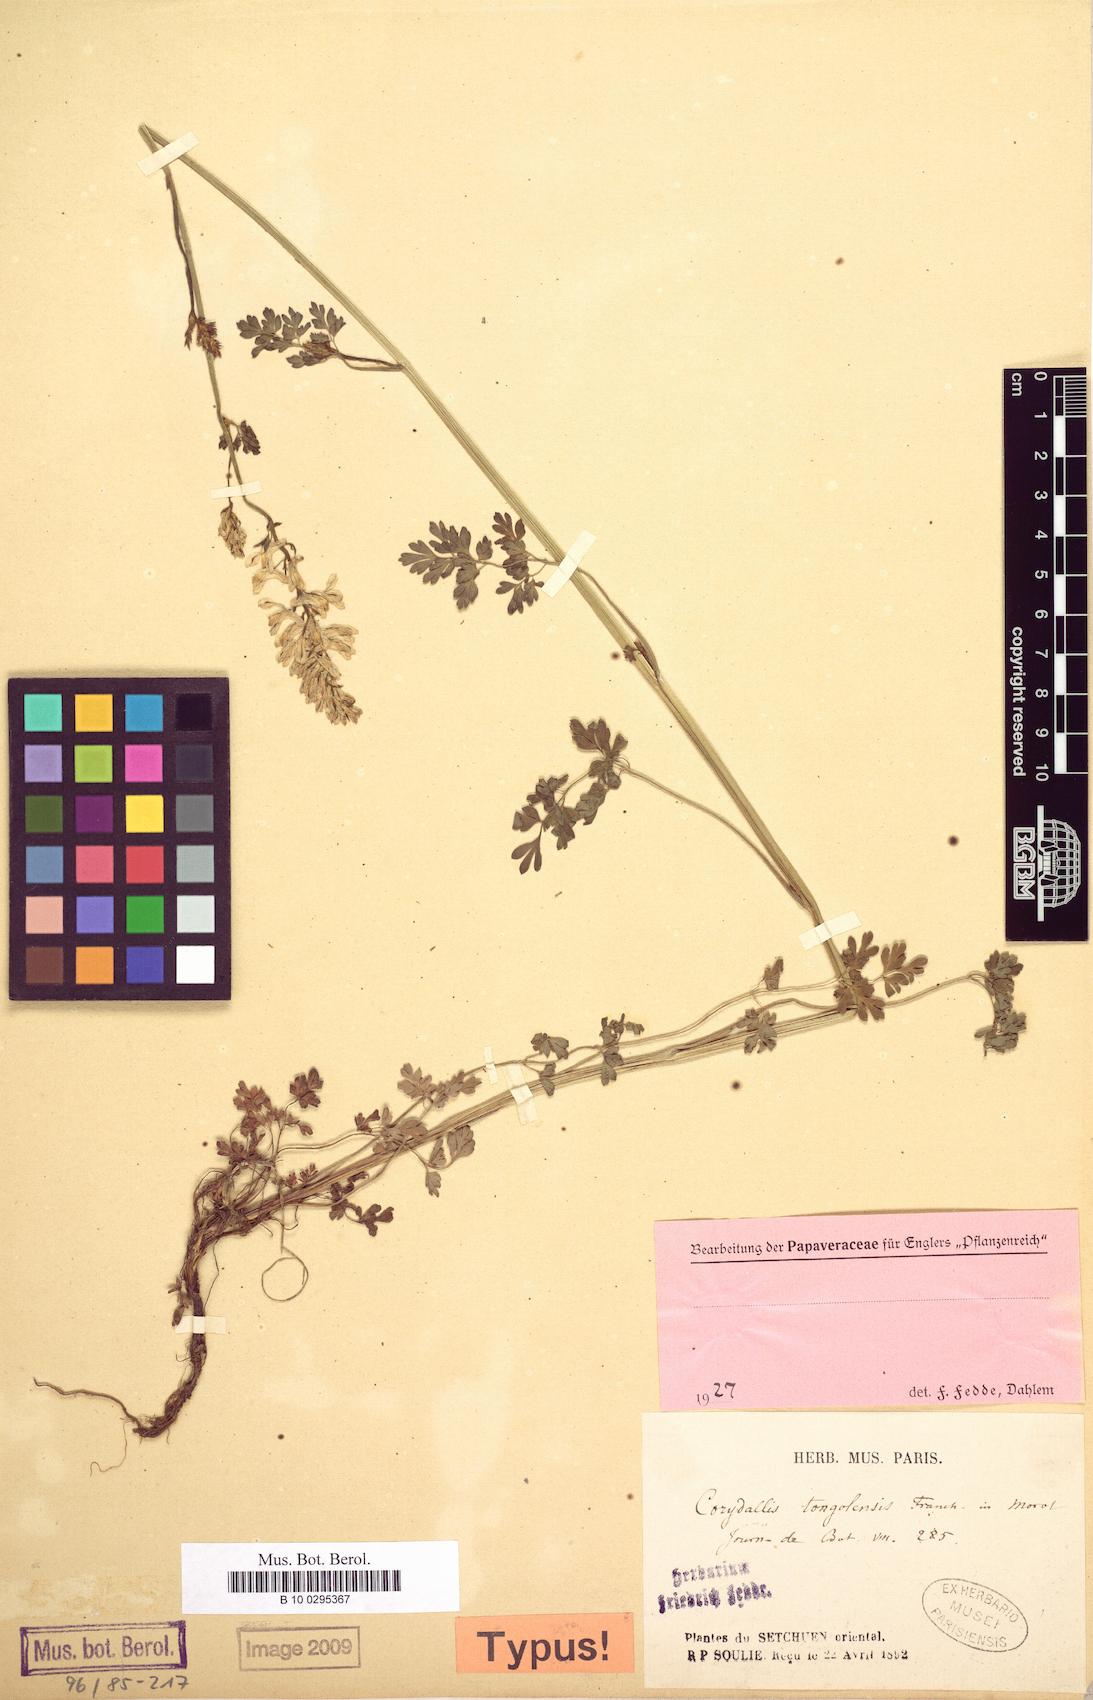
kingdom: Plantae
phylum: Tracheophyta
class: Magnoliopsida
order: Ranunculales
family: Papaveraceae
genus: Corydalis
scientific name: Corydalis tongolensis
